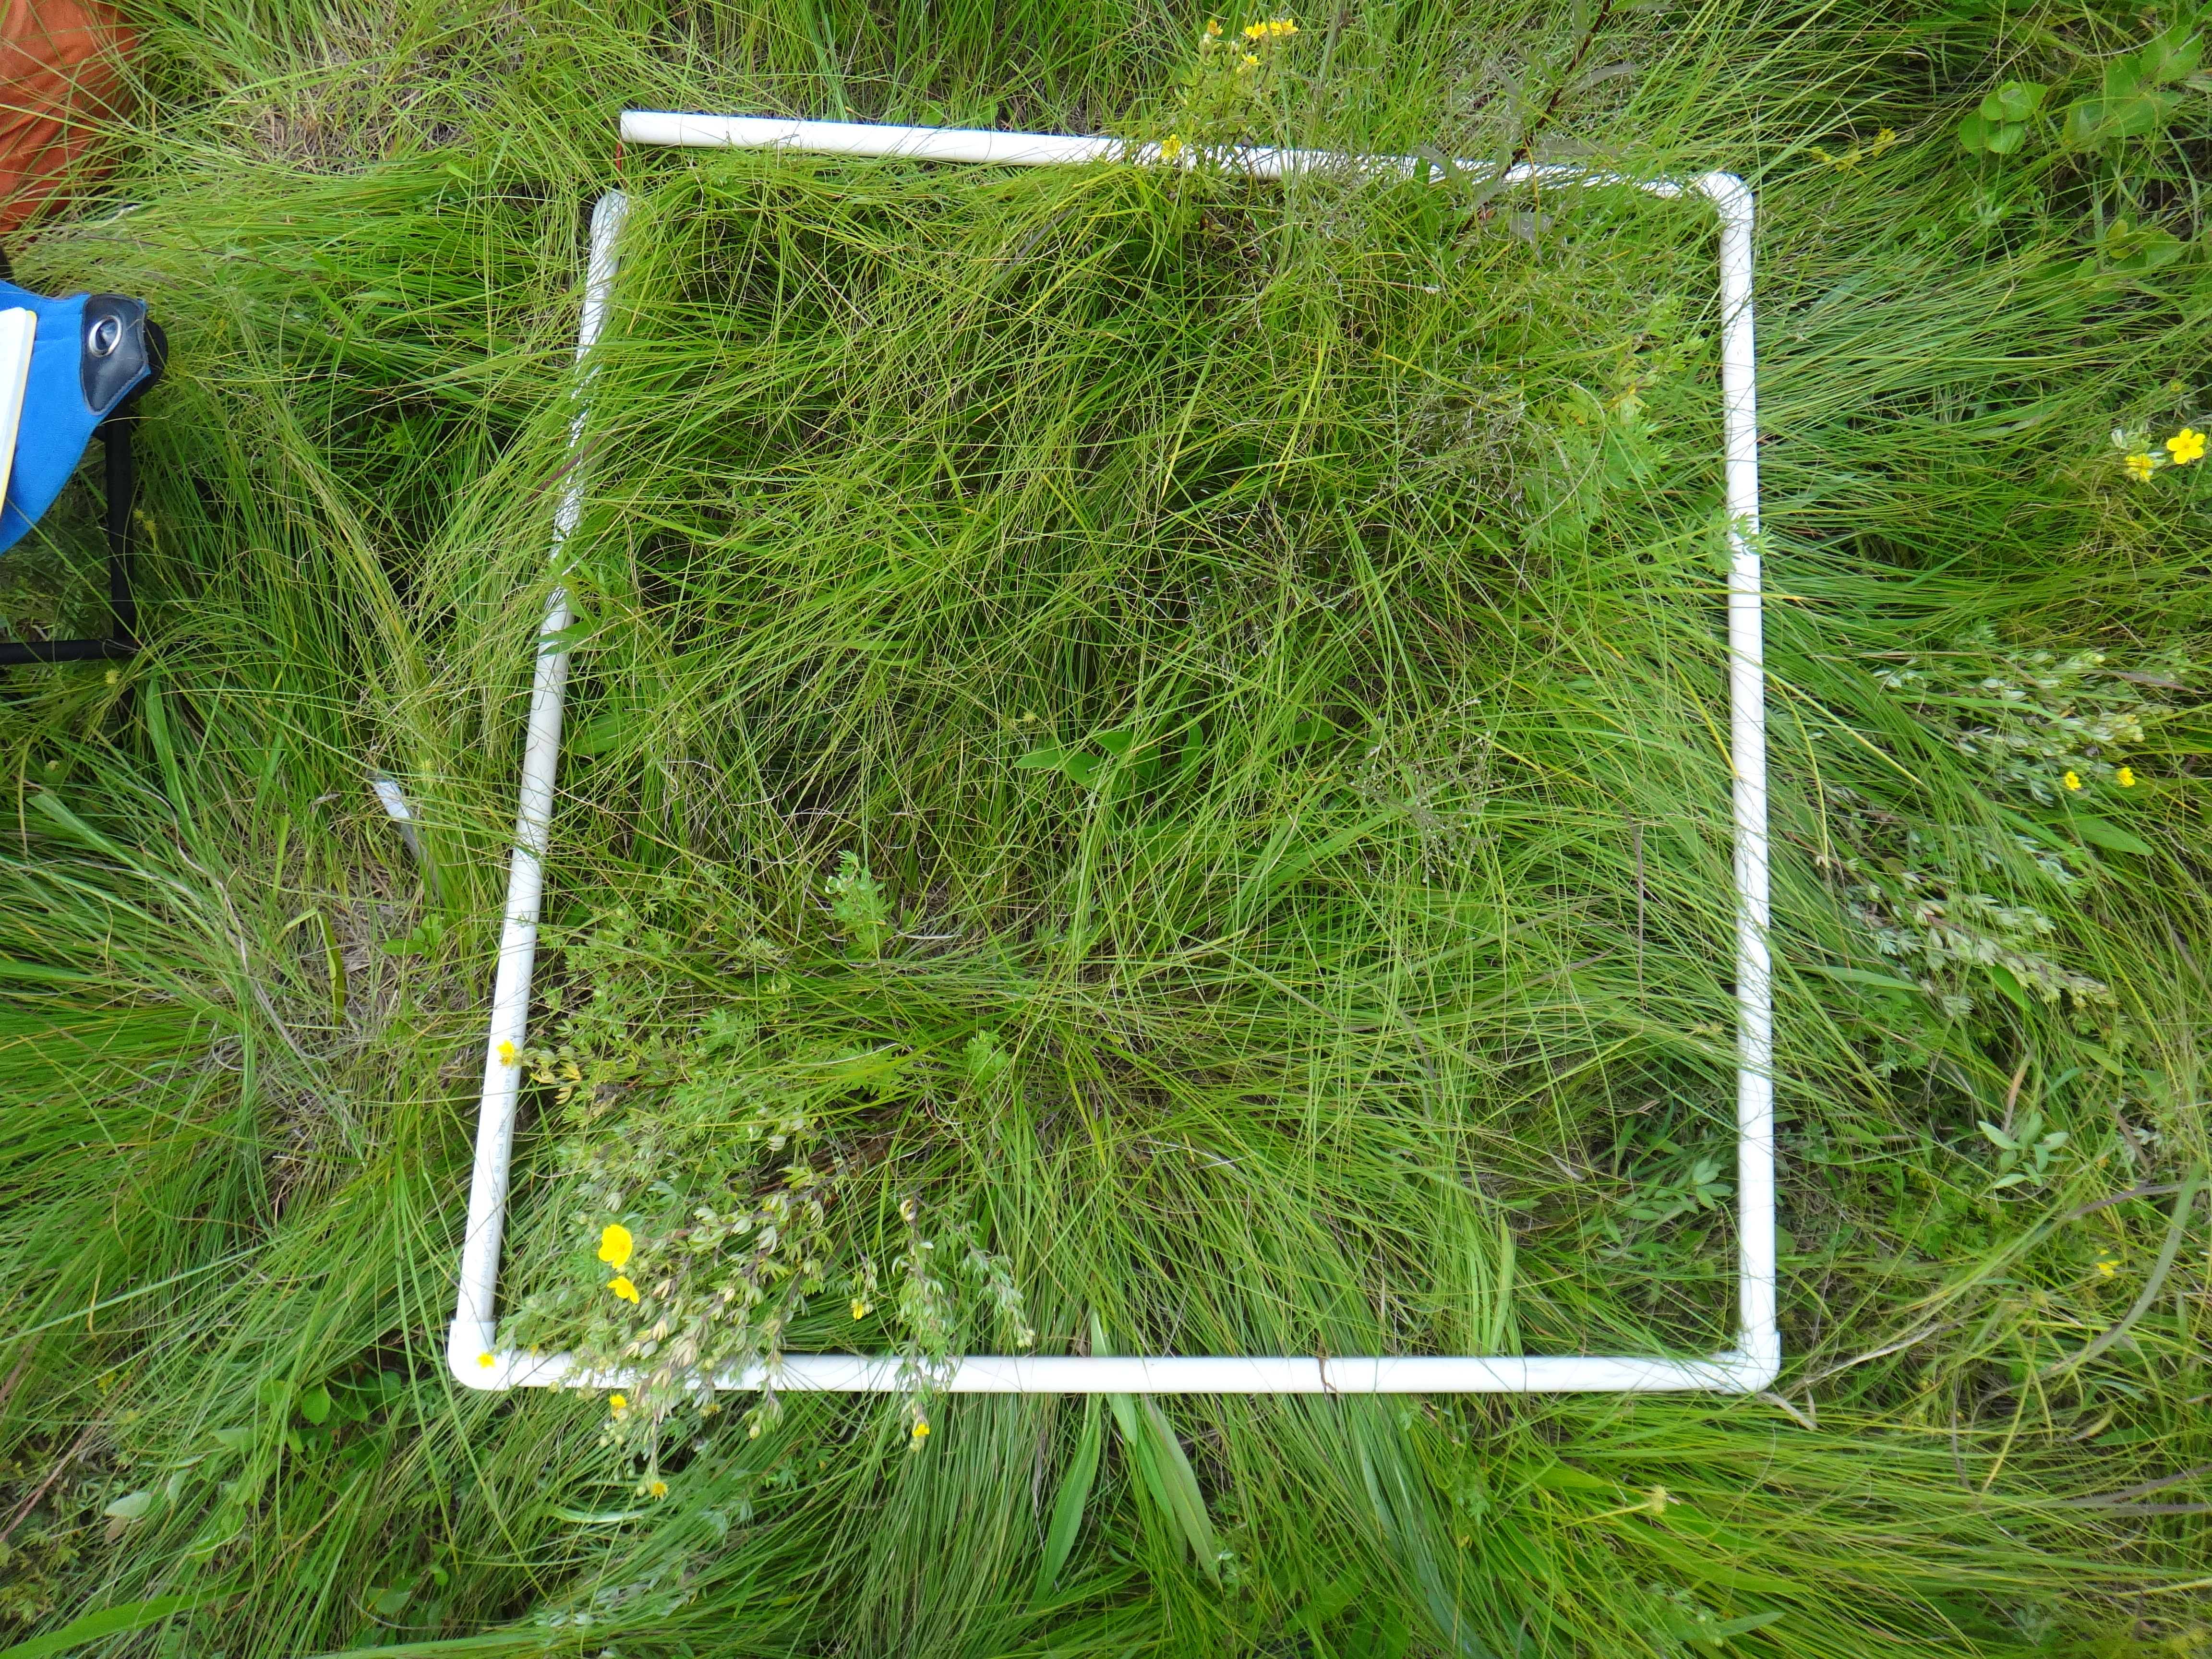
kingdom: Plantae
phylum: Tracheophyta
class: Magnoliopsida
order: Celastrales
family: Parnassiaceae
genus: Parnassia
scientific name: Parnassia glauca
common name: American grass-of-parnassus
